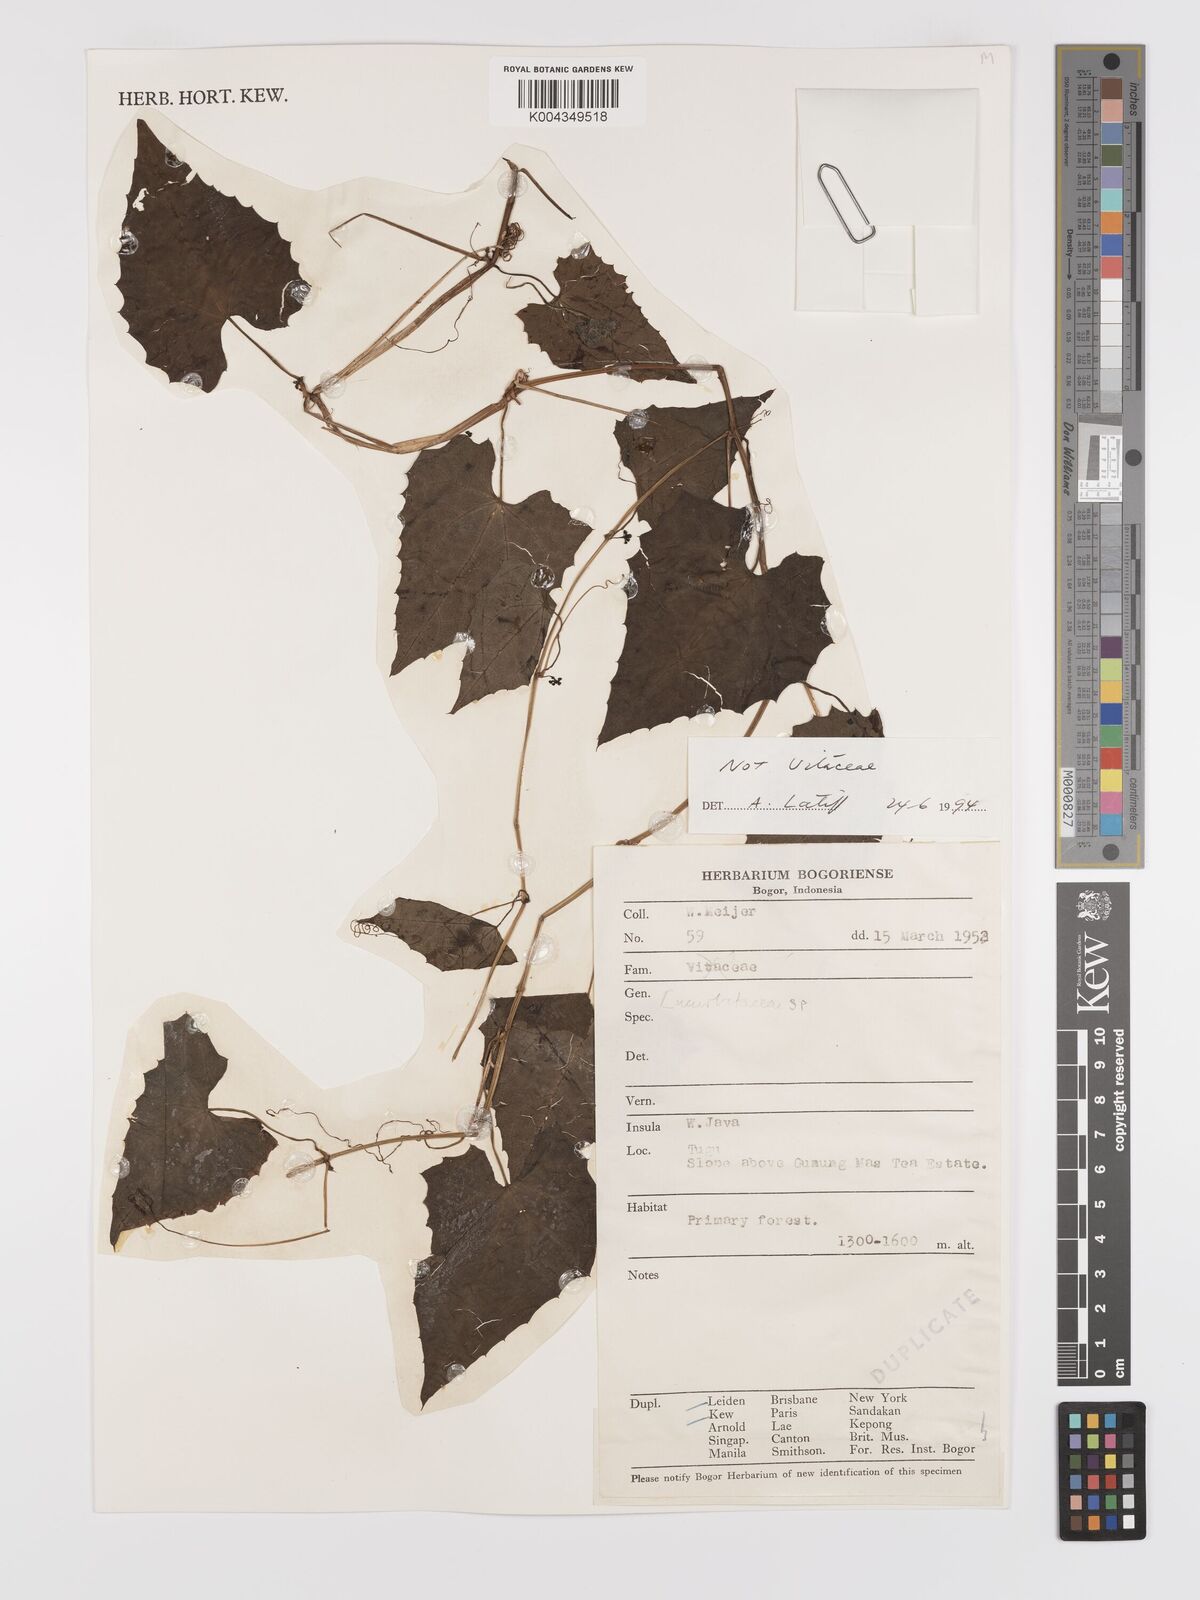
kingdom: Plantae
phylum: Tracheophyta
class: Magnoliopsida
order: Cucurbitales
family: Cucurbitaceae
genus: Zehneria
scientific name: Zehneria scabra
